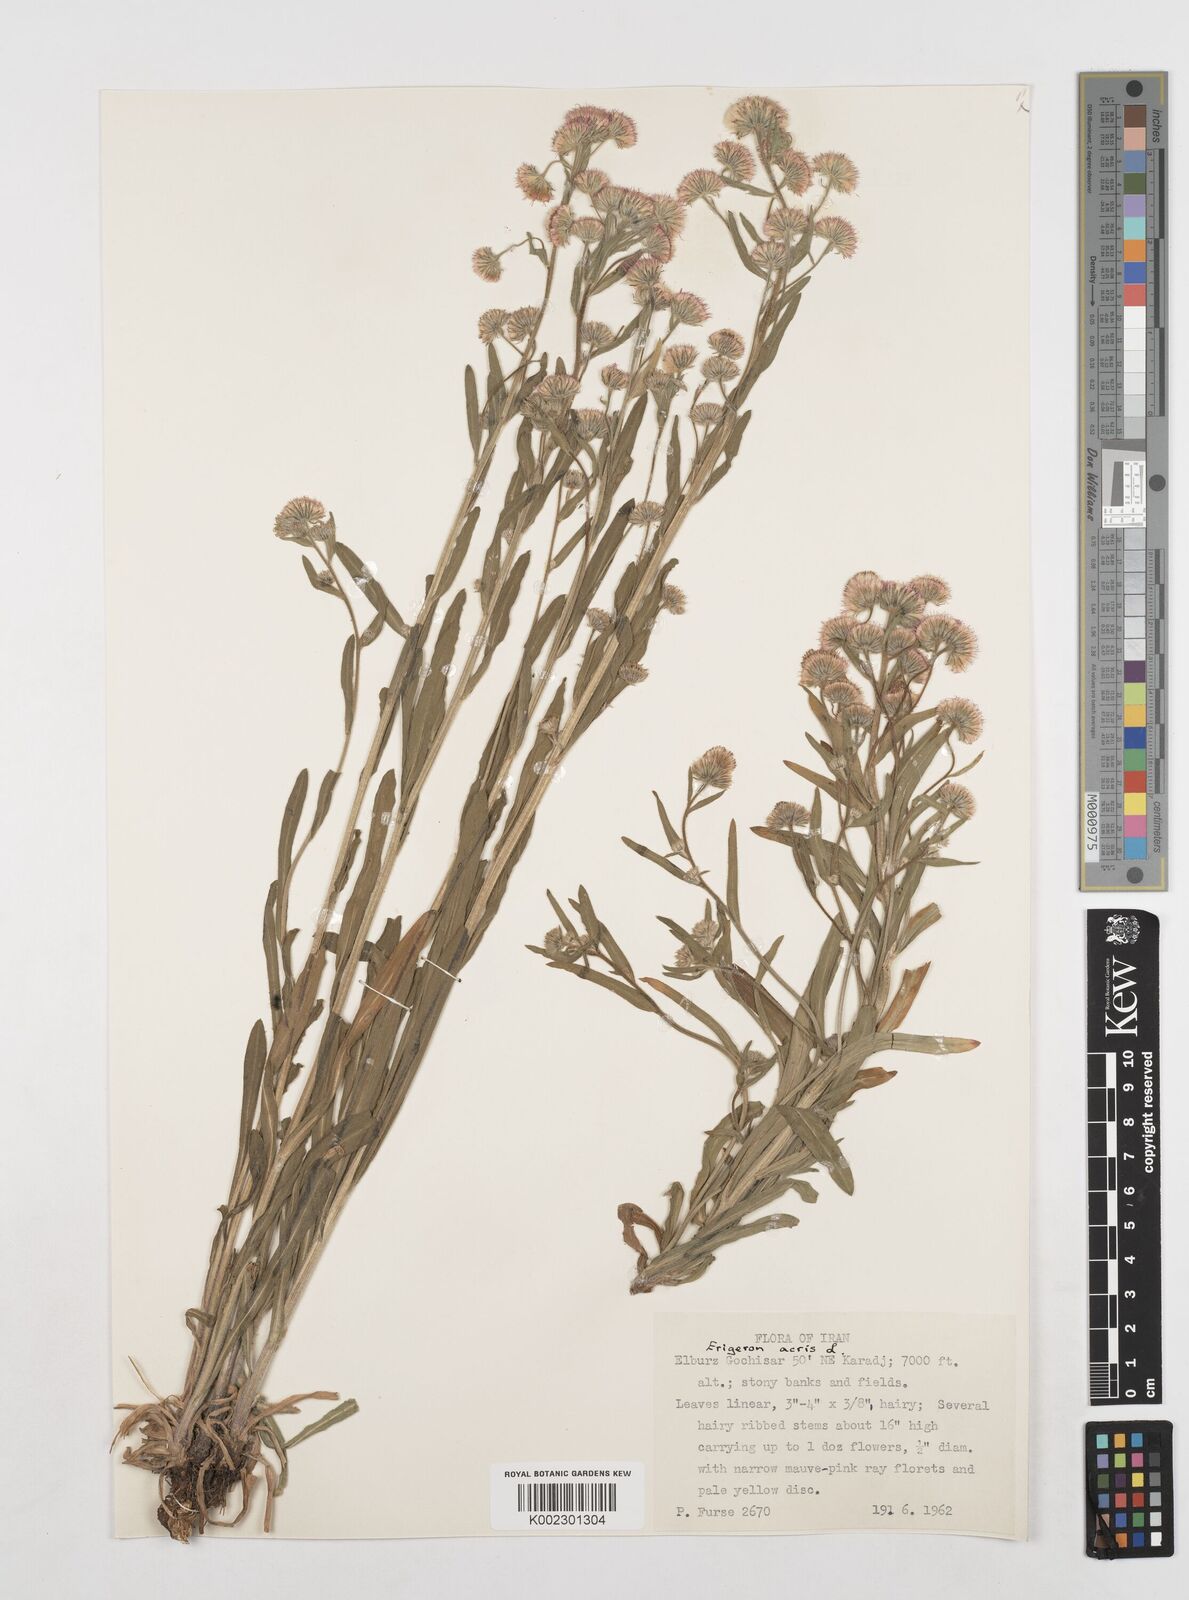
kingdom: Plantae
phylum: Tracheophyta
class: Magnoliopsida
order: Asterales
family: Asteraceae
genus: Erigeron
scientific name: Erigeron acris
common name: Blue fleabane
